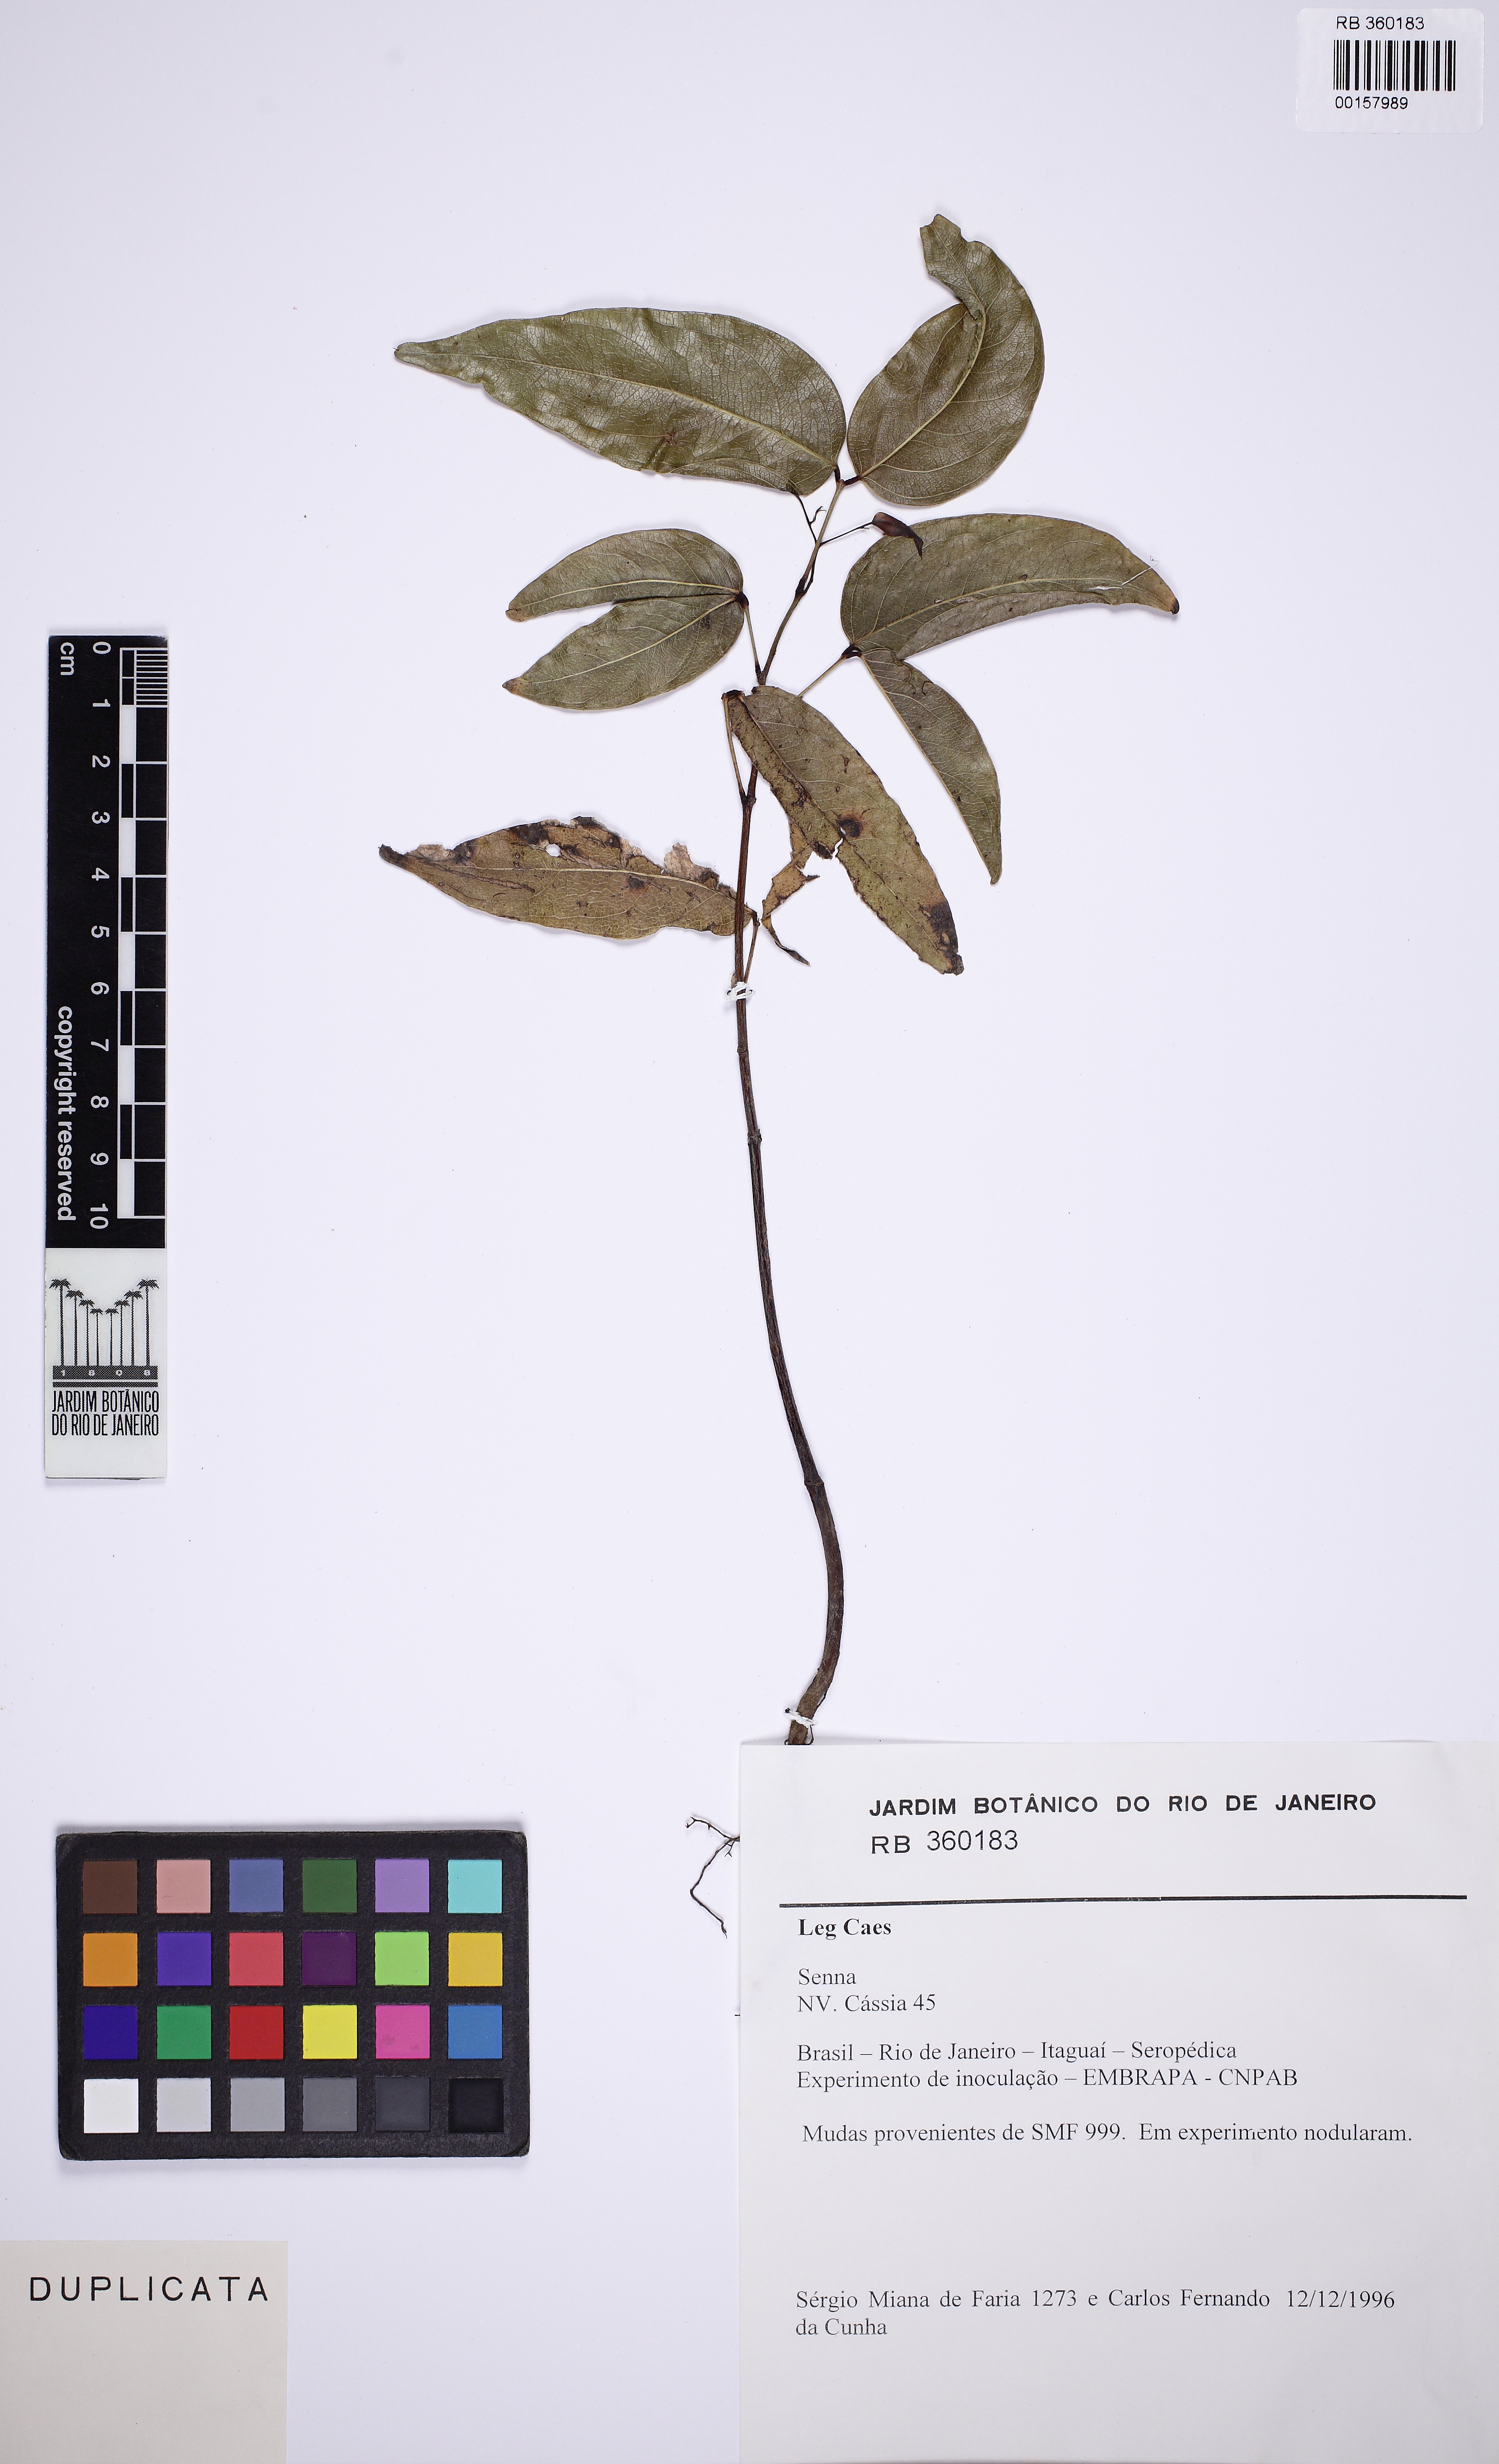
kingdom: Plantae
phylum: Tracheophyta
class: Magnoliopsida
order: Fabales
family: Fabaceae
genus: Senna
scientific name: Senna
